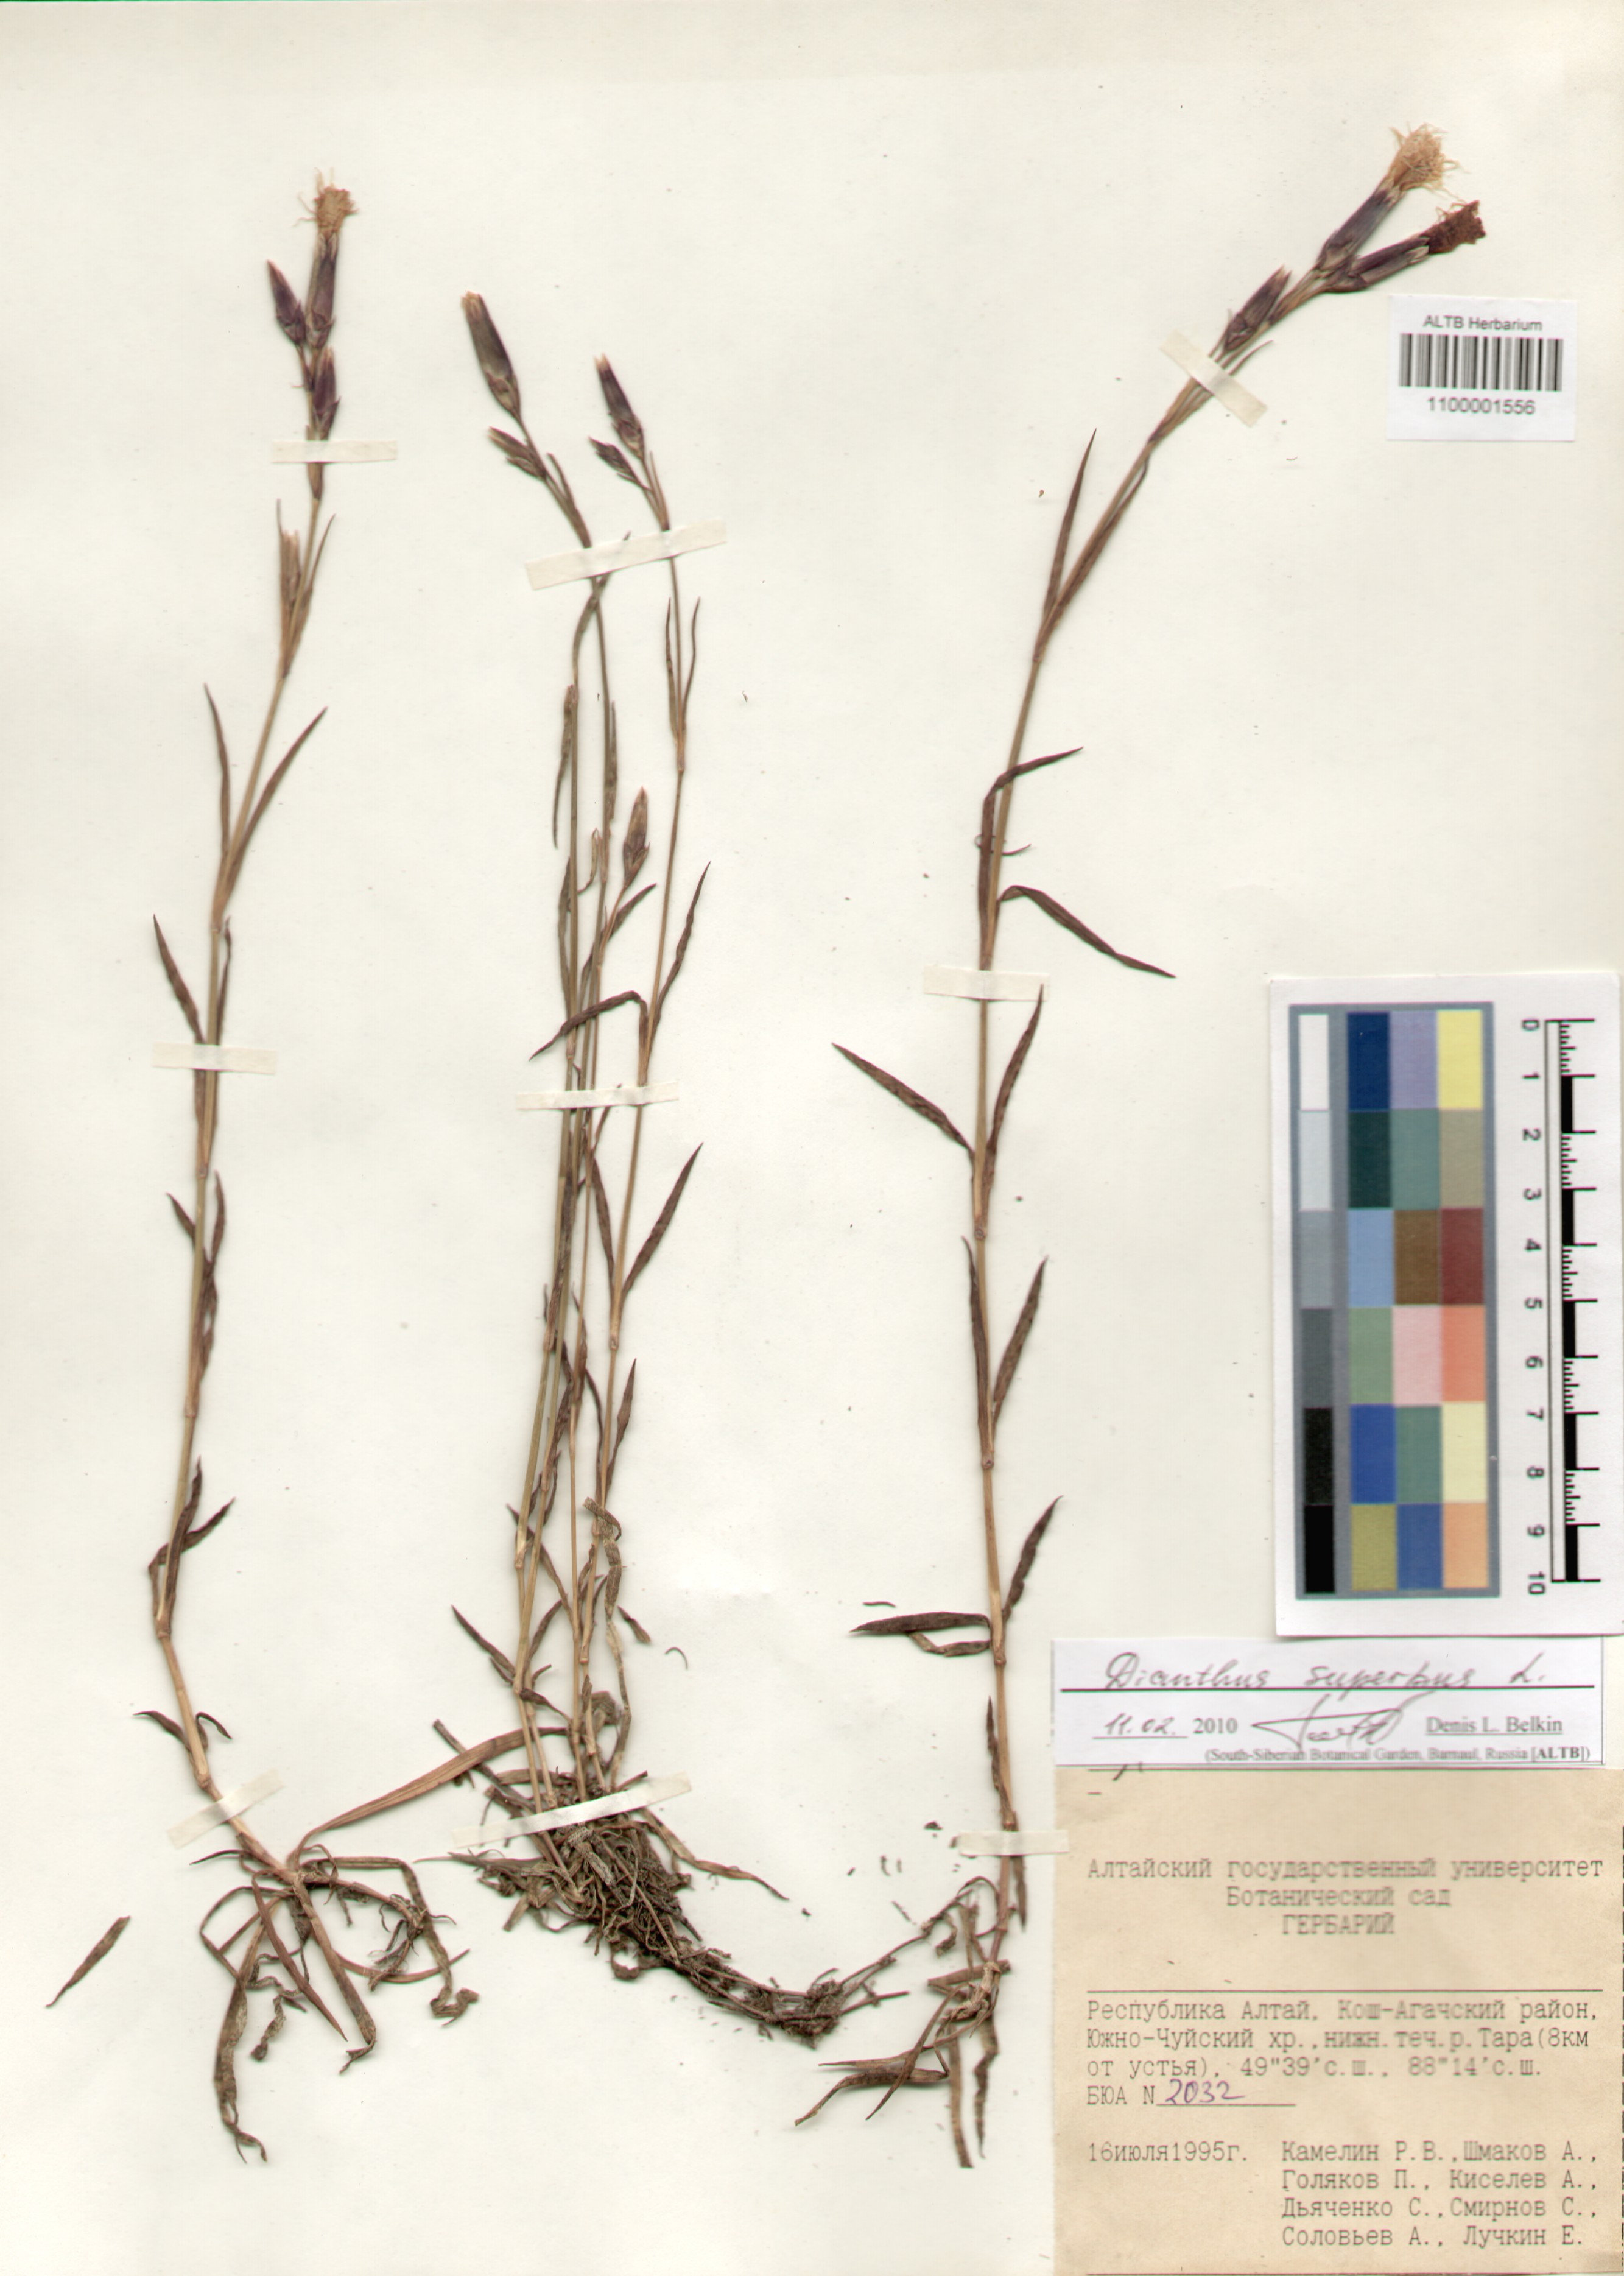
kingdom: Plantae
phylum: Tracheophyta
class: Magnoliopsida
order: Caryophyllales
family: Caryophyllaceae
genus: Dianthus
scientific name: Dianthus superbus
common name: Fringed pink
